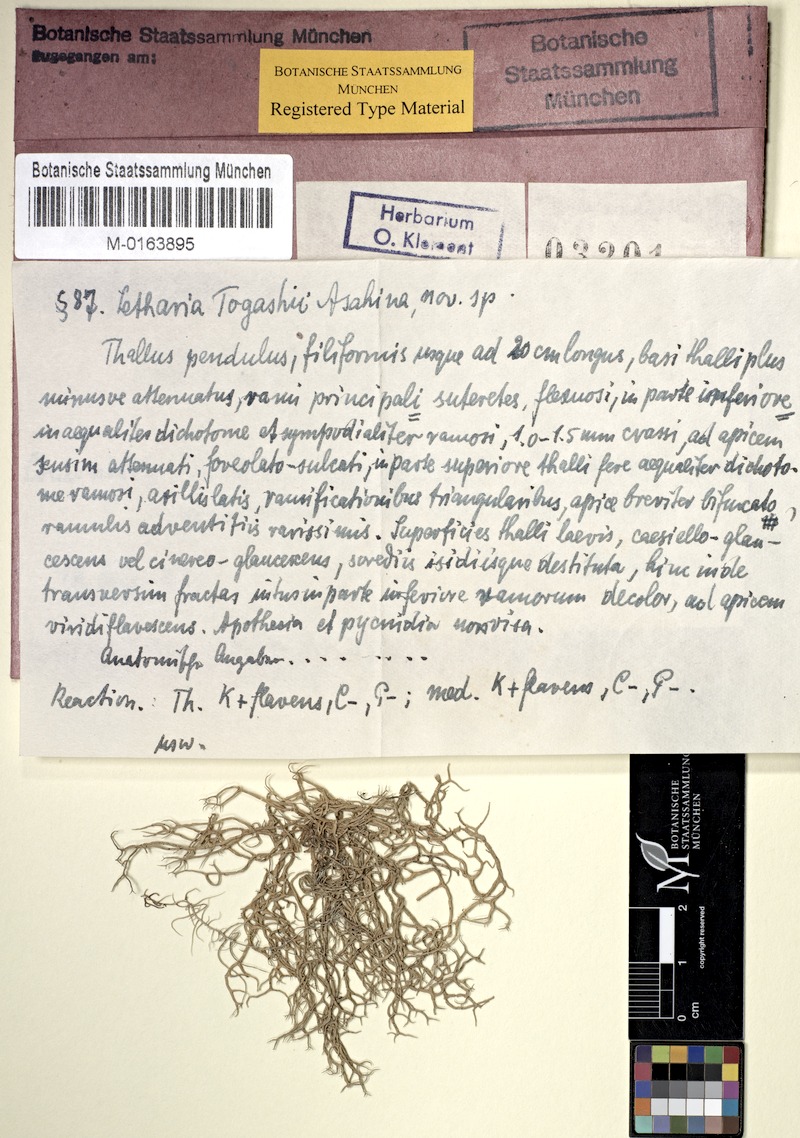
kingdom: Fungi
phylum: Ascomycota
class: Lecanoromycetes
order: Lecanorales
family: Parmeliaceae
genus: Lethariella
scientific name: Lethariella togashii
